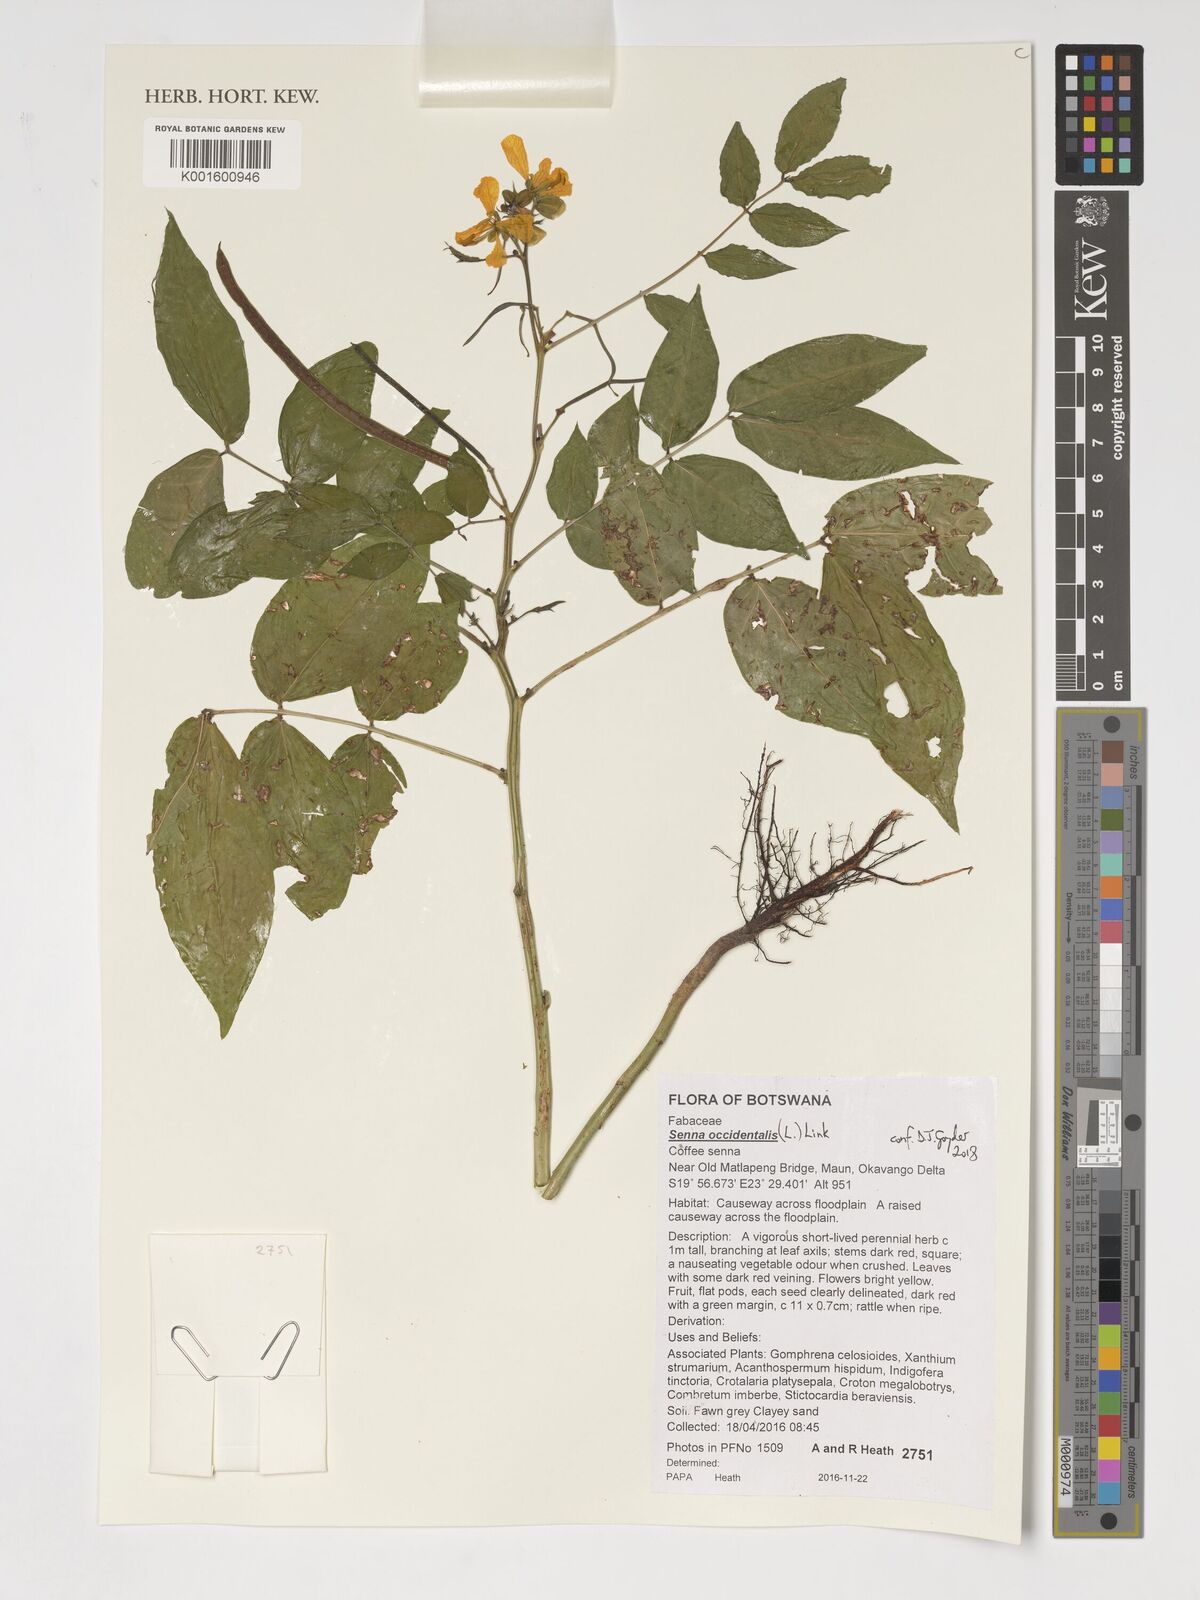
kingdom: Plantae
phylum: Tracheophyta
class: Magnoliopsida
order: Fabales
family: Fabaceae
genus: Senna
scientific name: Senna occidentalis
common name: Septicweed
